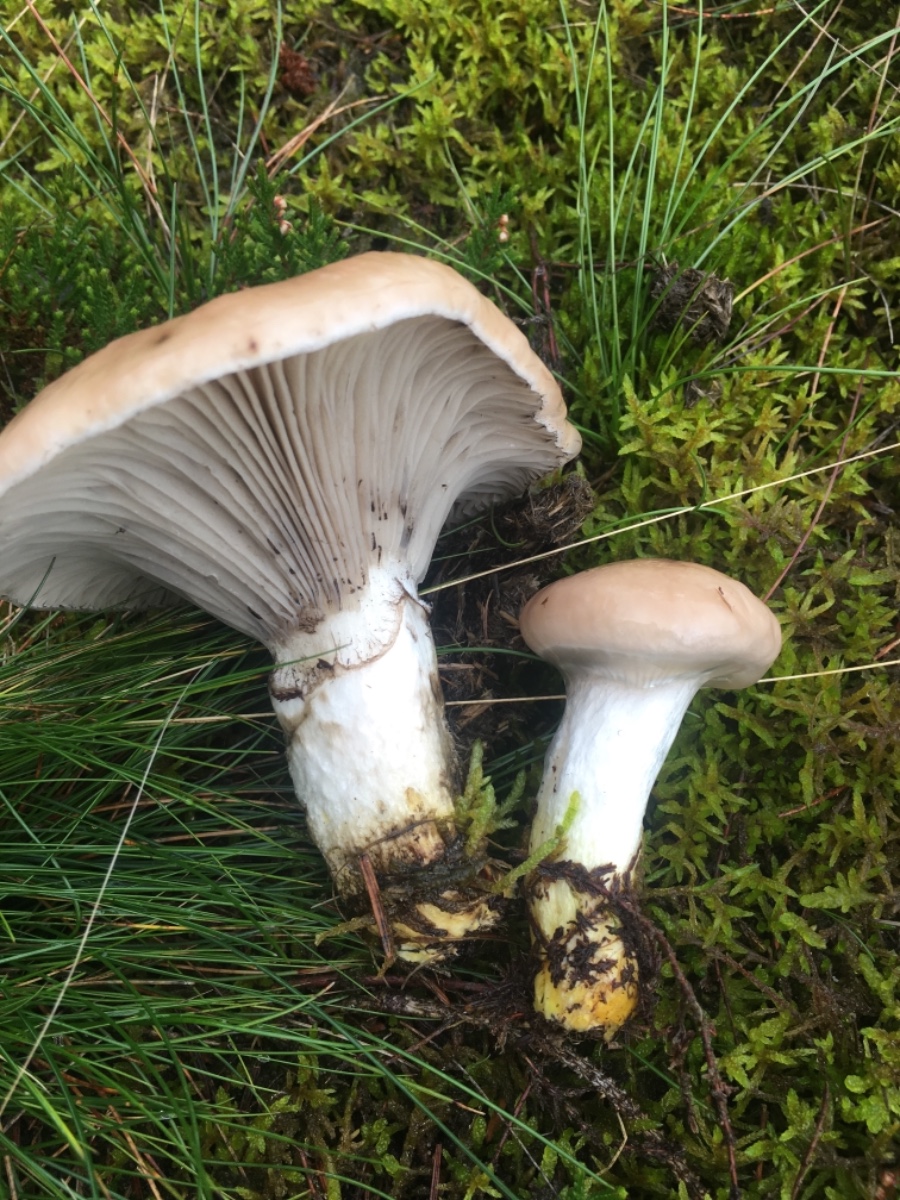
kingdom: Fungi
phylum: Basidiomycota
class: Agaricomycetes
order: Boletales
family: Gomphidiaceae
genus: Gomphidius
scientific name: Gomphidius glutinosus
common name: grå slimslør
